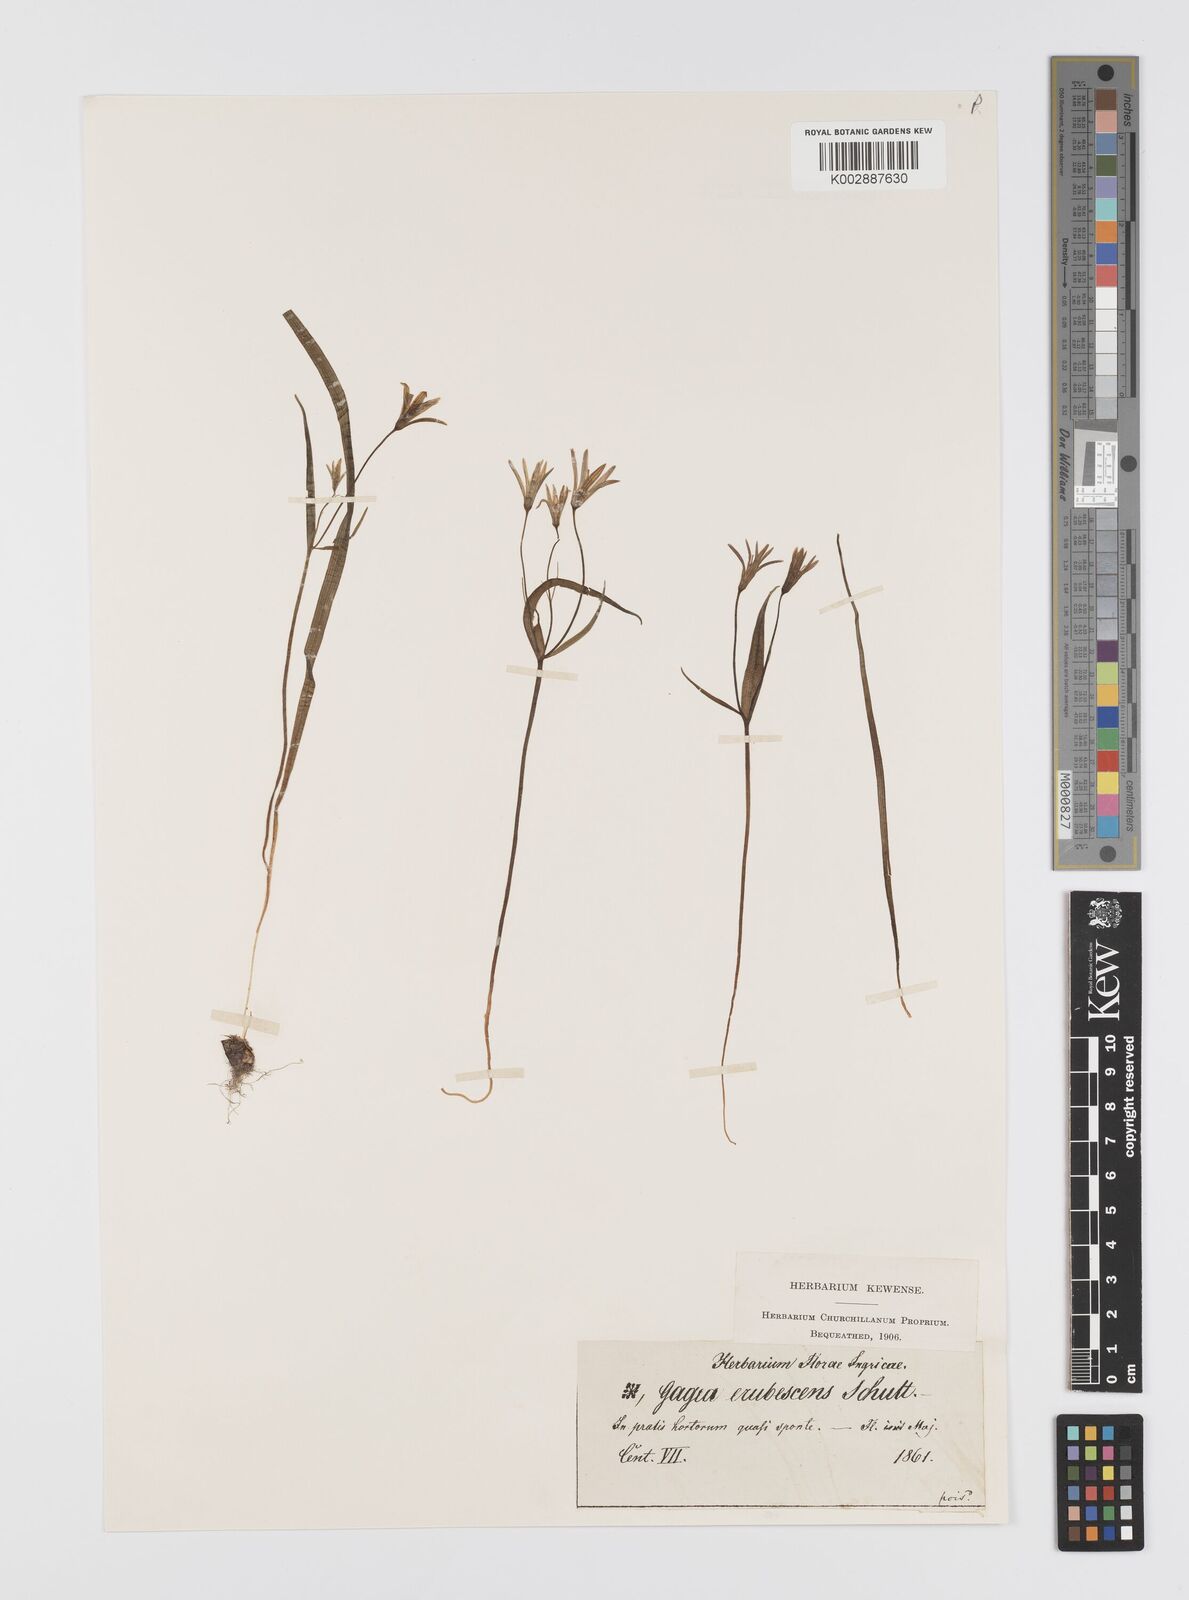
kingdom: Plantae
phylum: Tracheophyta
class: Liliopsida
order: Liliales
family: Liliaceae
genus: Gagea
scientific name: Gagea fragifera
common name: Lily
